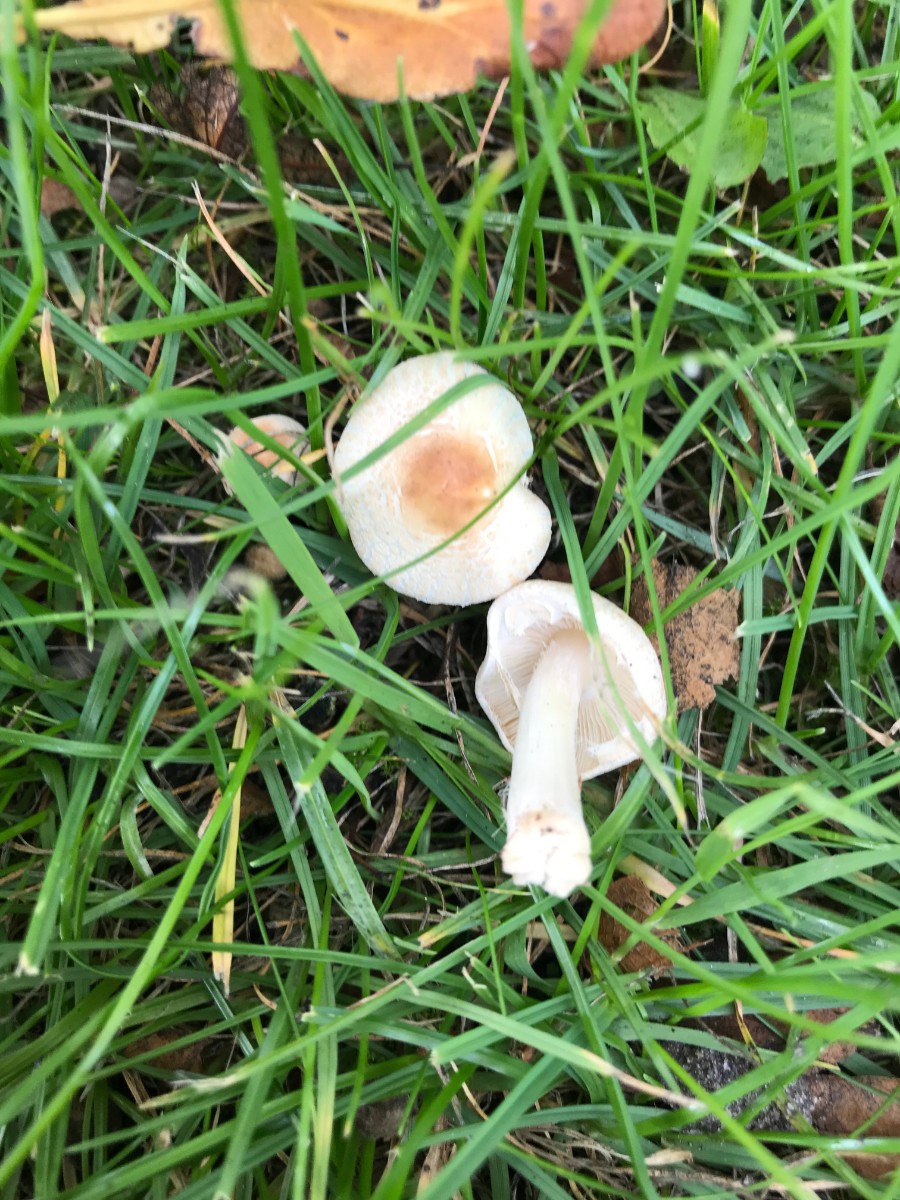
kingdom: Fungi
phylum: Basidiomycota
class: Agaricomycetes
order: Agaricales
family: Agaricaceae
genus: Lepiota
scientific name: Lepiota cristata
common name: stinkende parasolhat
